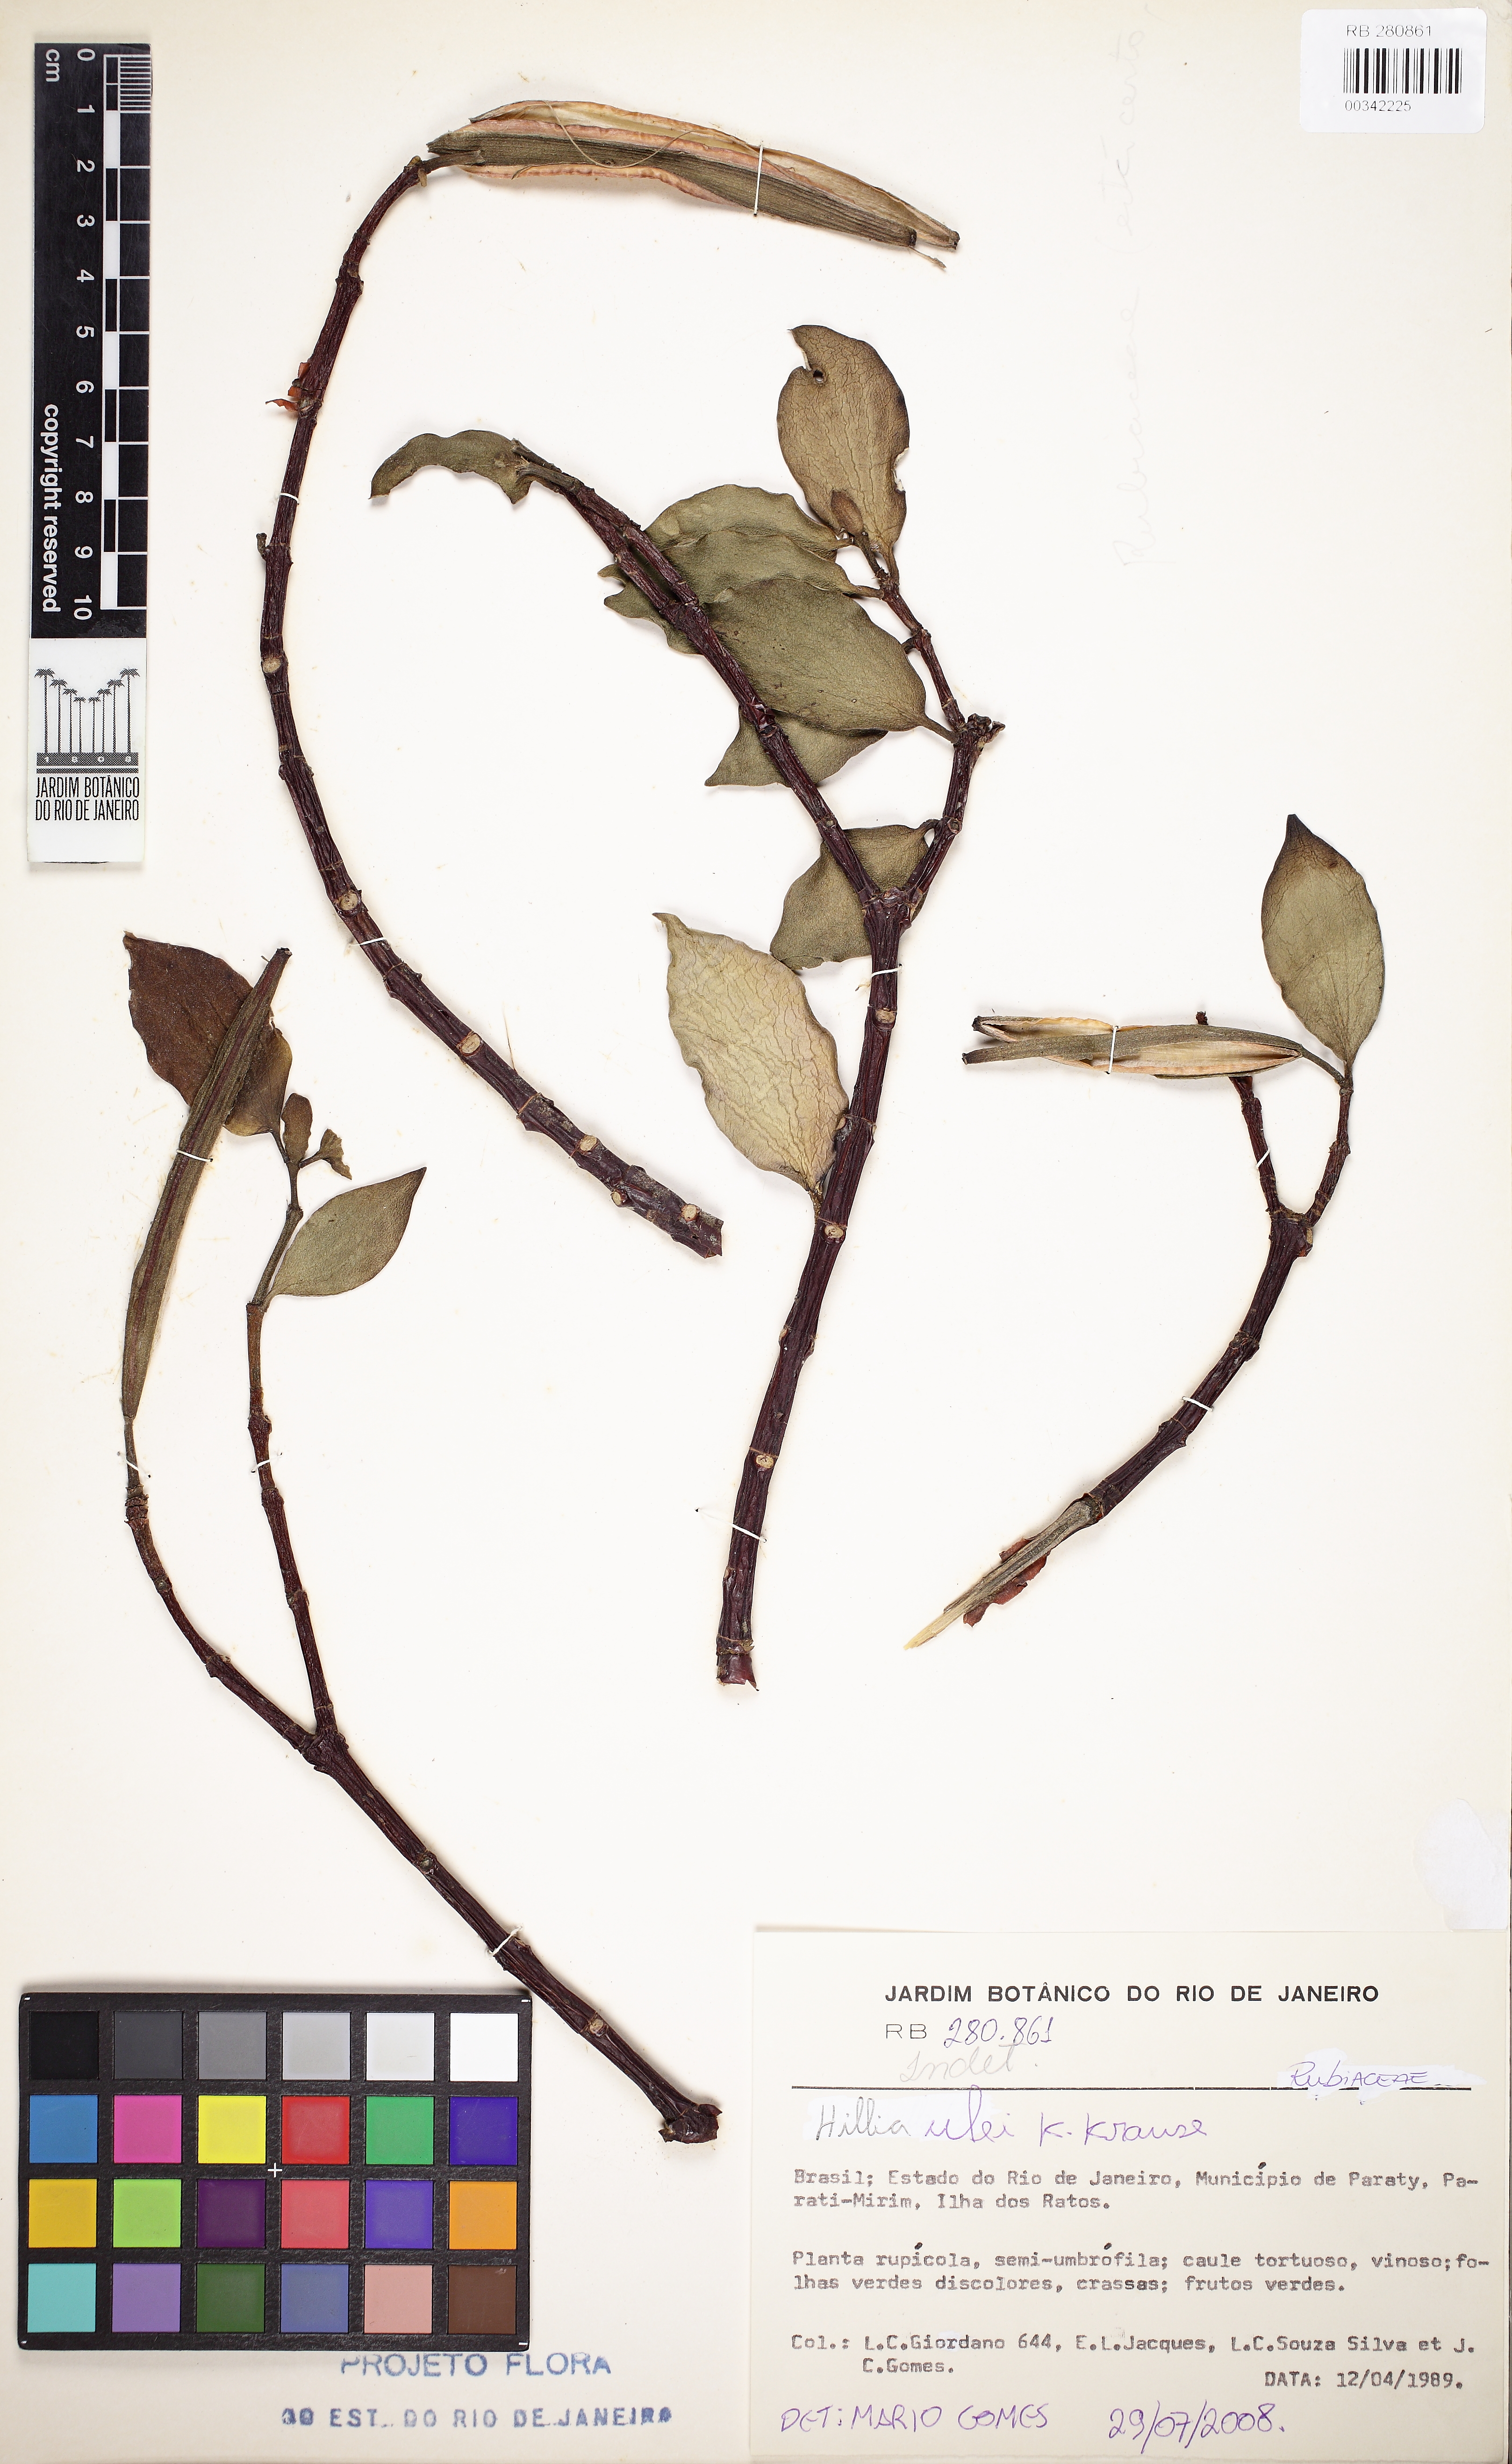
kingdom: Plantae
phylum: Tracheophyta
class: Magnoliopsida
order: Gentianales
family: Rubiaceae
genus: Hillia
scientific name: Hillia ulei
